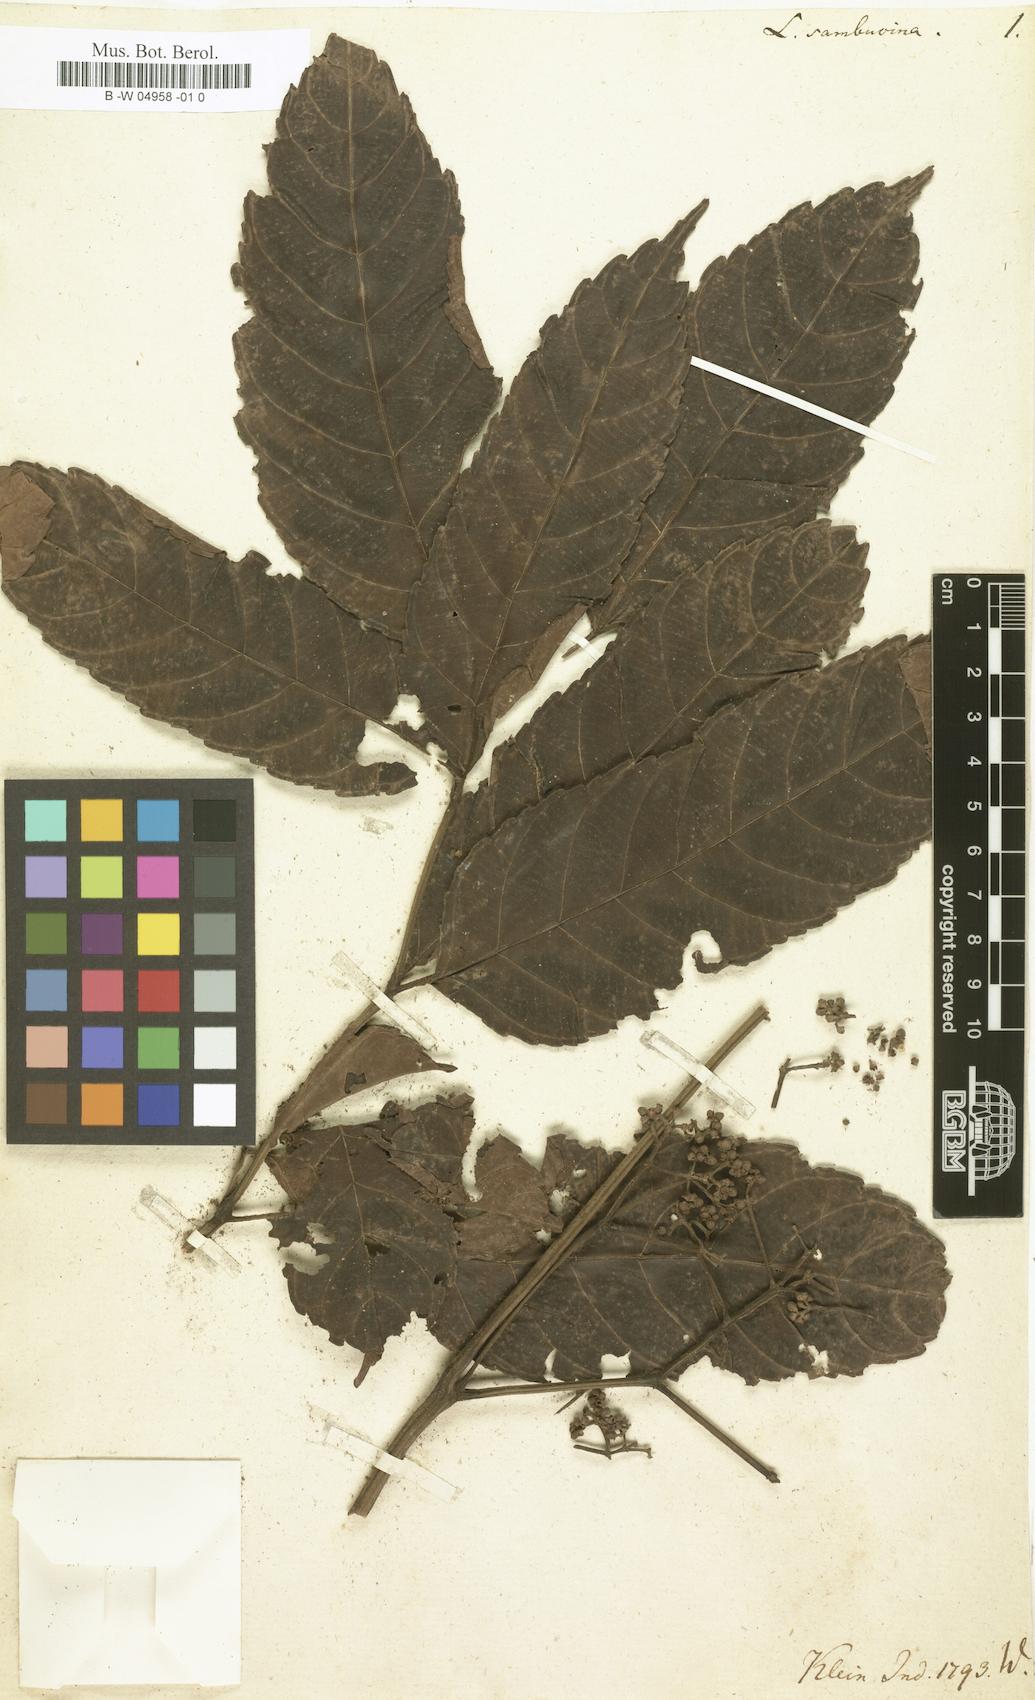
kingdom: Plantae
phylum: Tracheophyta
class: Magnoliopsida
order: Vitales
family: Vitaceae
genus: Leea
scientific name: Leea
